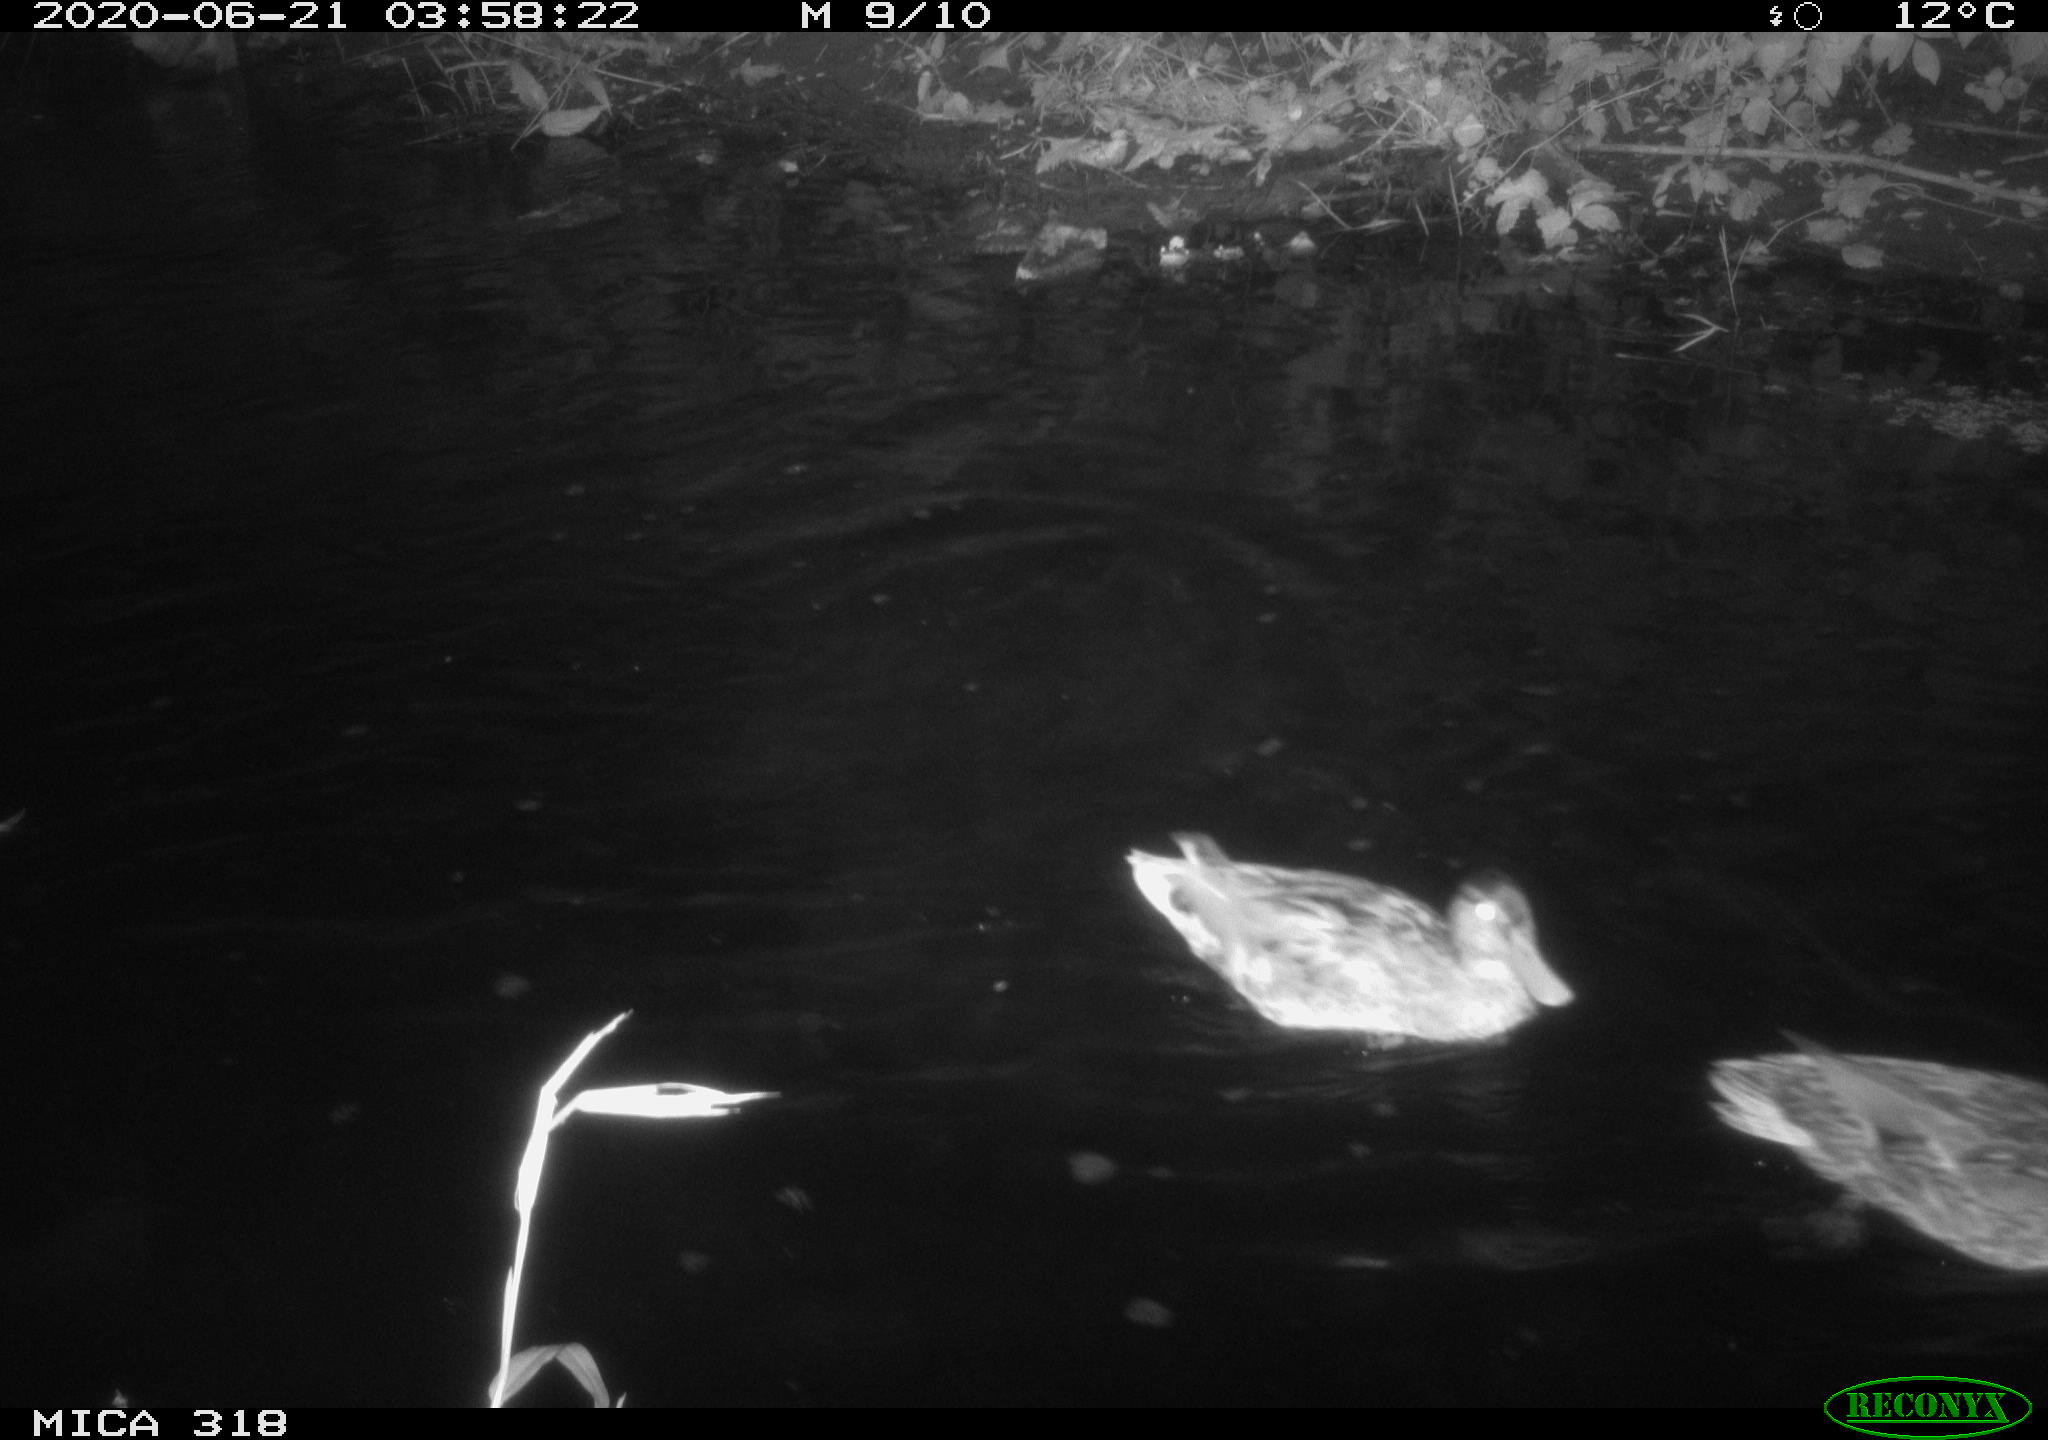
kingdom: Animalia
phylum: Chordata
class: Aves
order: Anseriformes
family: Anatidae
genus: Anas
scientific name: Anas platyrhynchos
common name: Mallard
